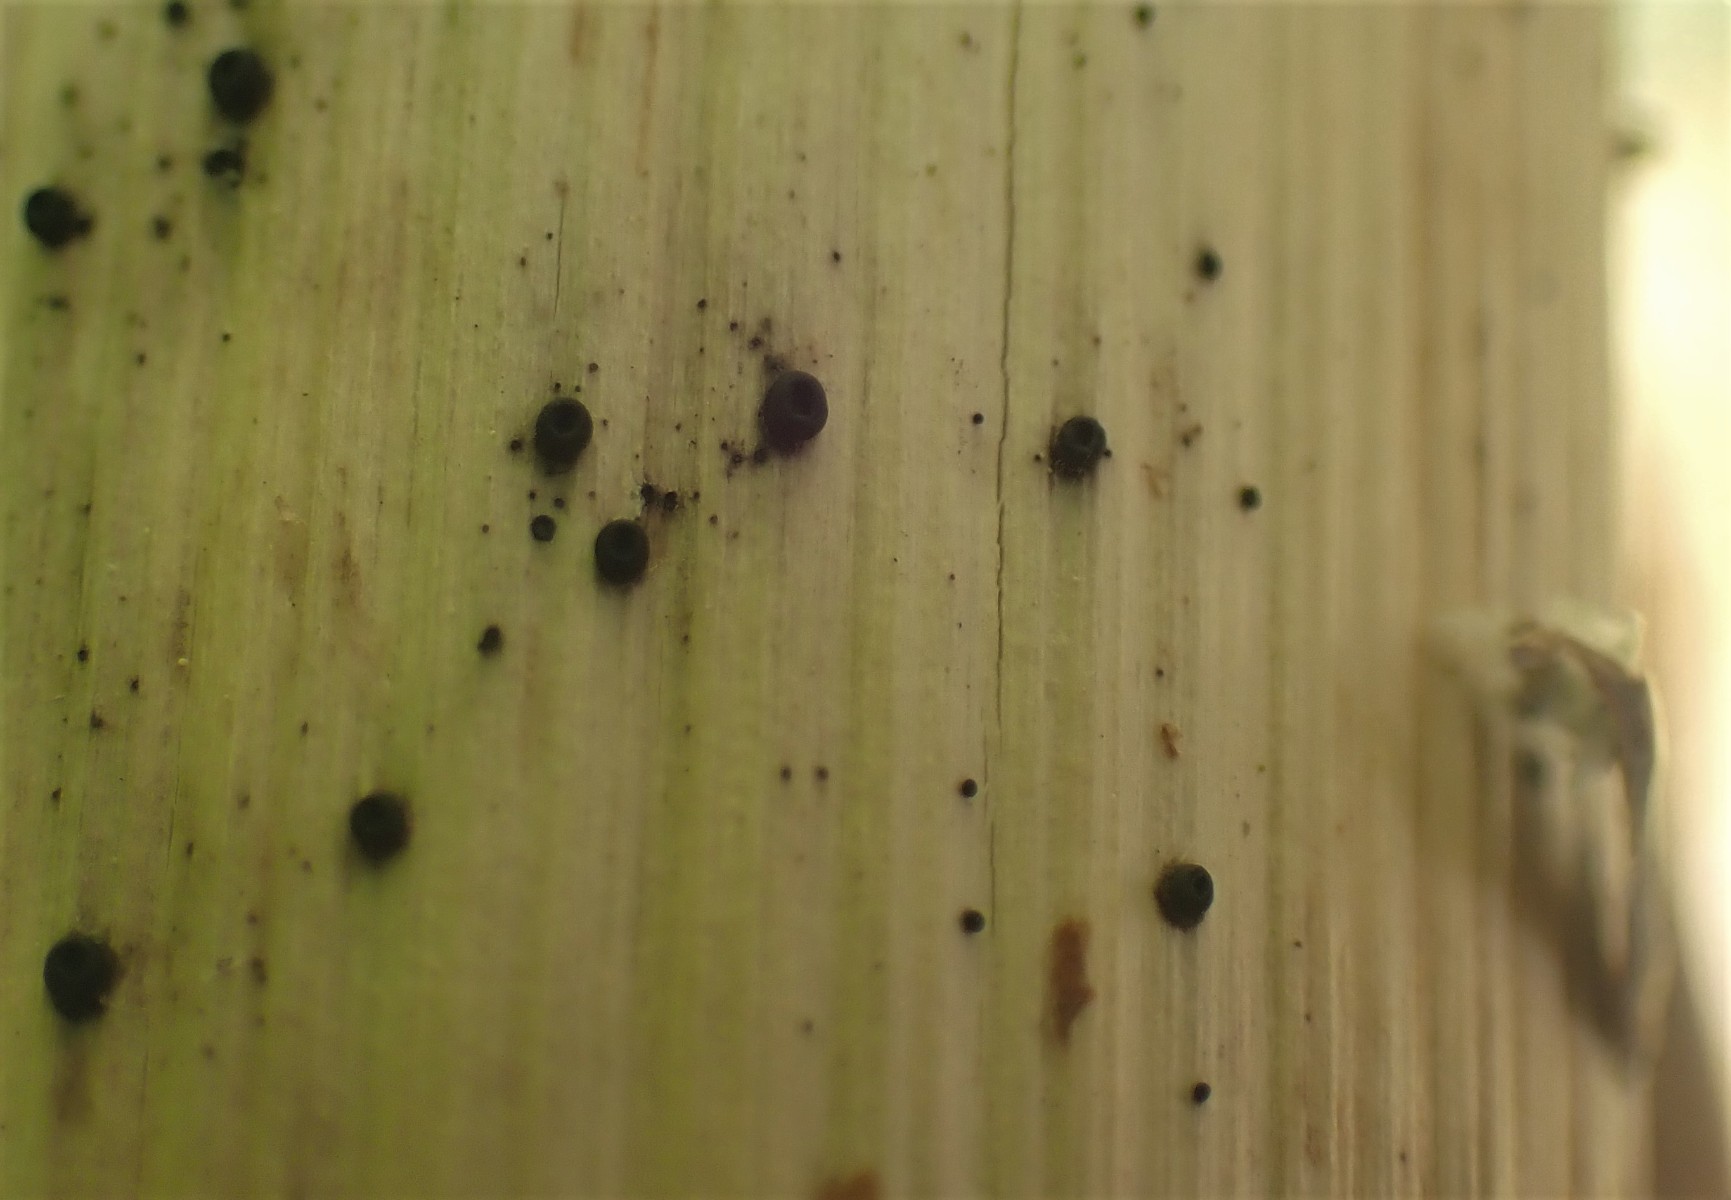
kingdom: Fungi
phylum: Ascomycota
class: Leotiomycetes
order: Helotiales
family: Heterosphaeriaceae
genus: Heterosphaeria
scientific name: Heterosphaeria
